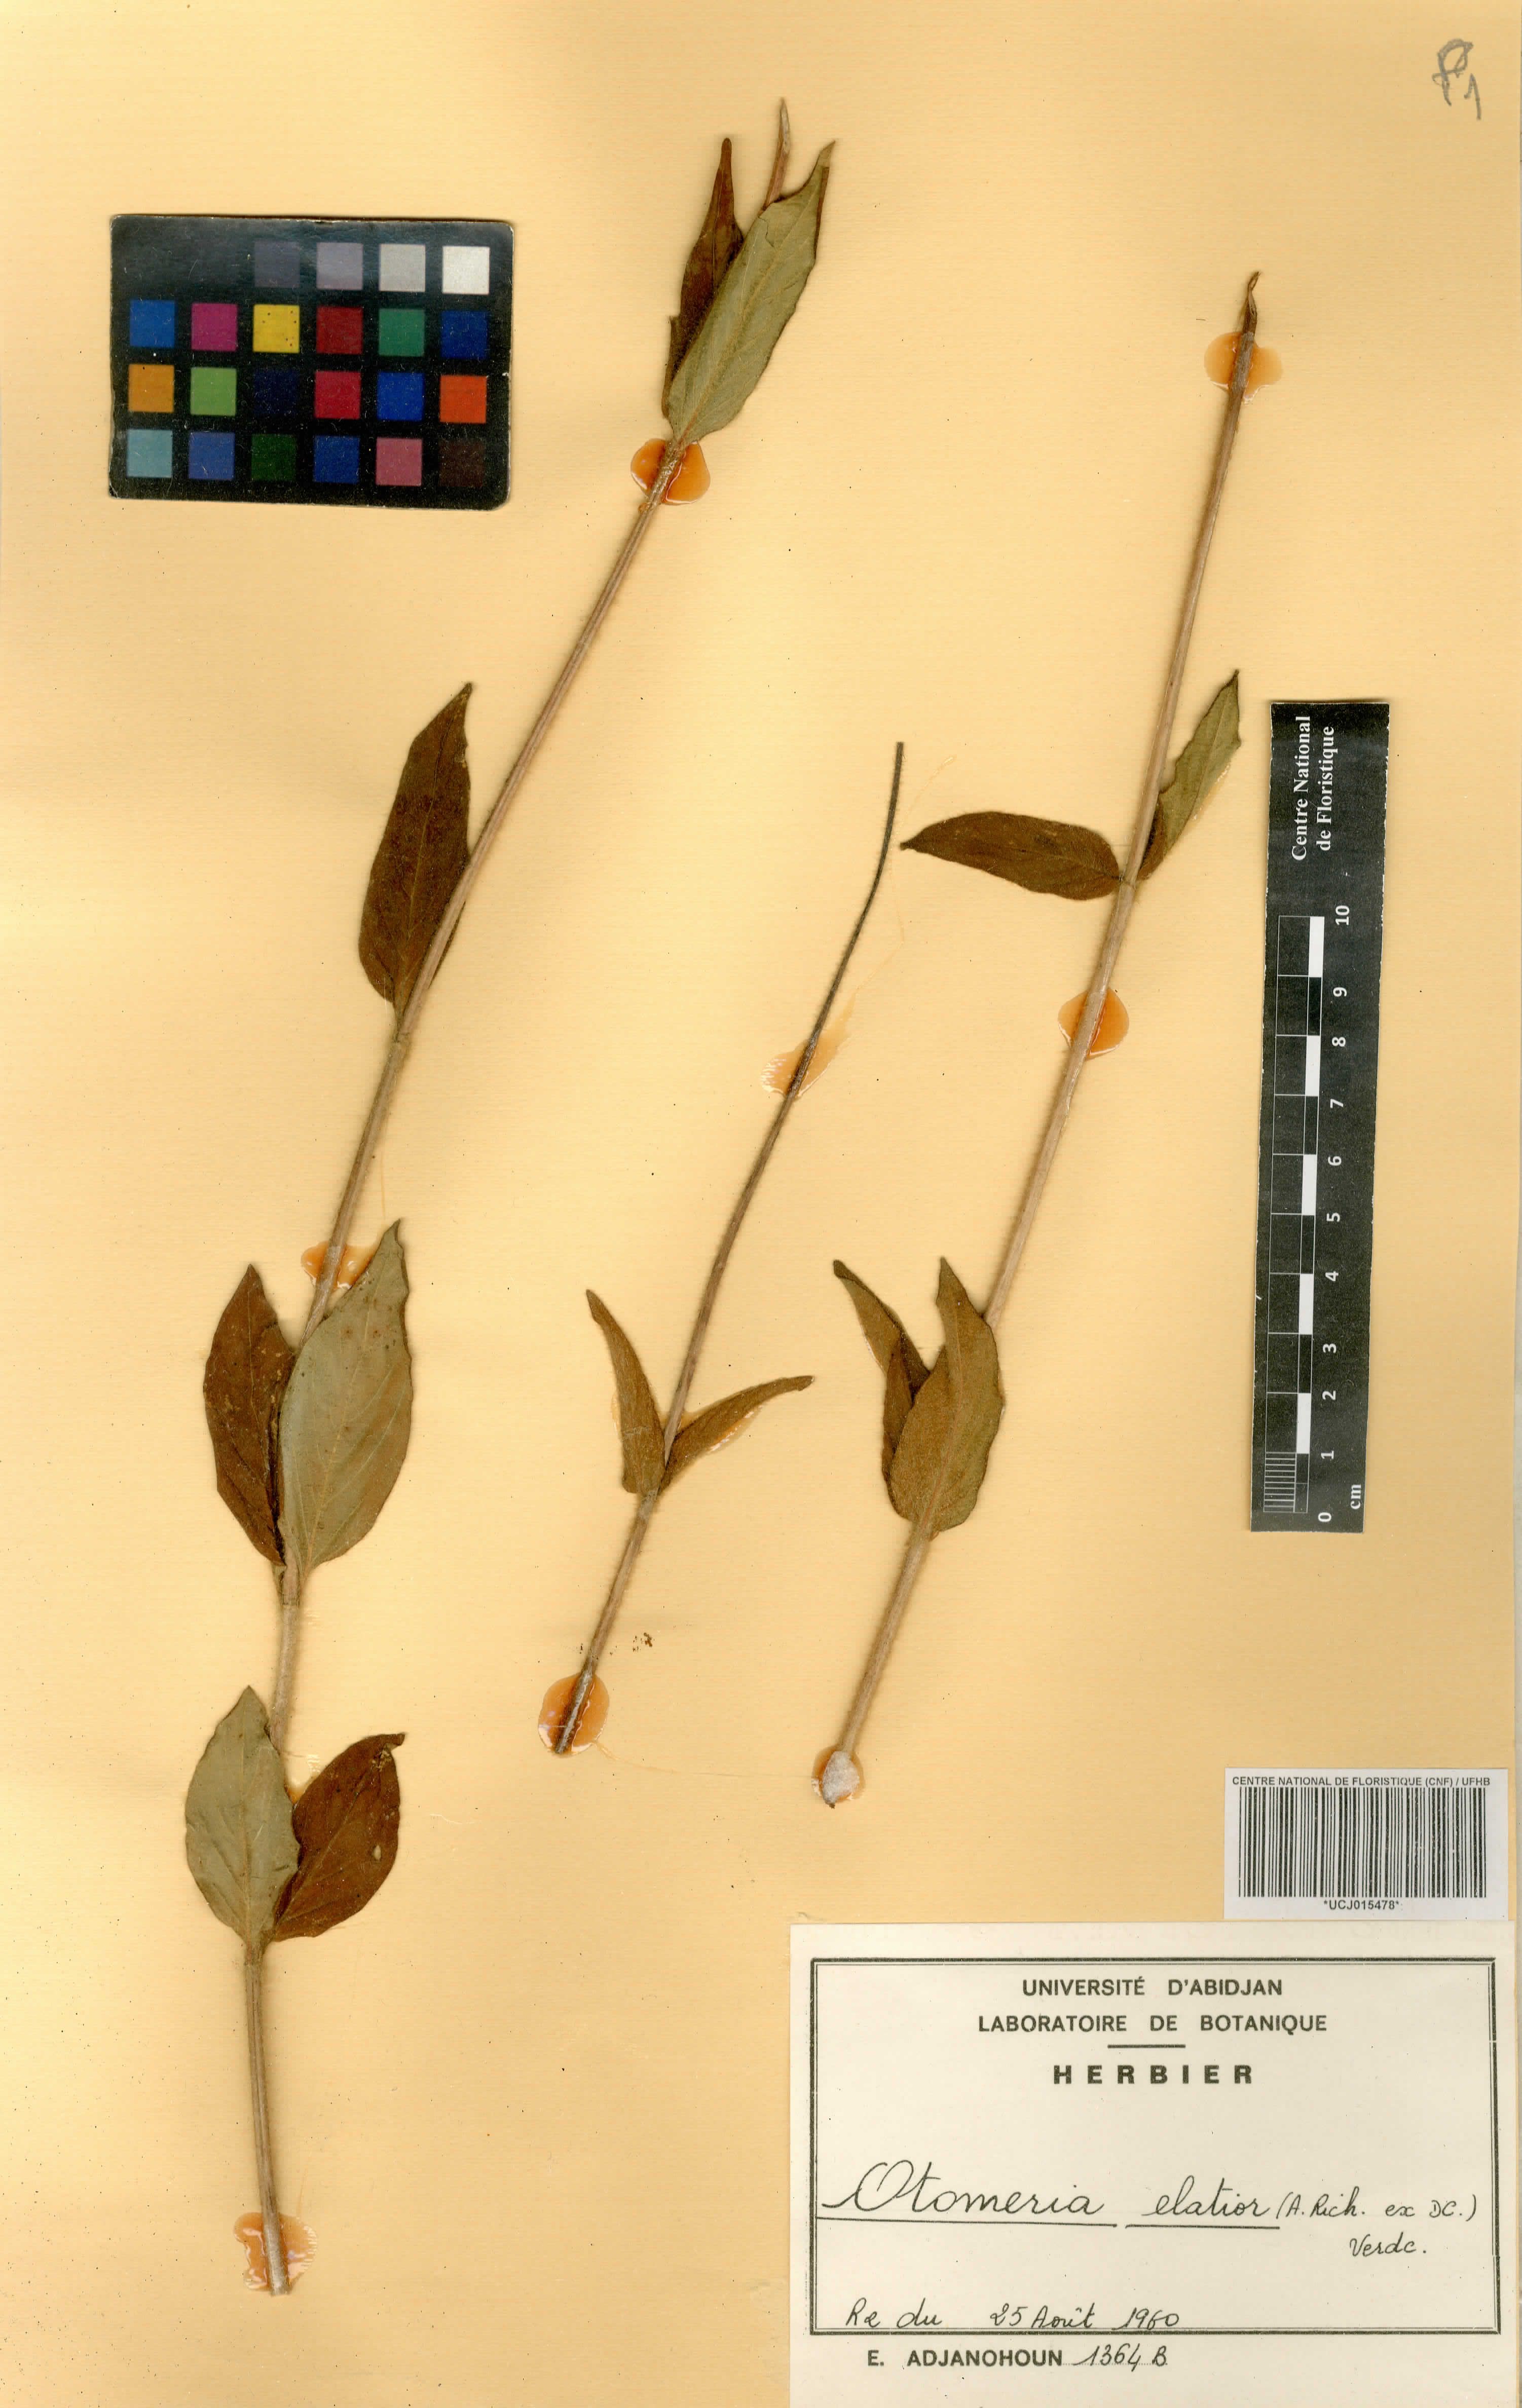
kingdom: Plantae
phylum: Tracheophyta
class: Magnoliopsida
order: Gentianales
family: Rubiaceae
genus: Otomeria
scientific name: Otomeria elatior
